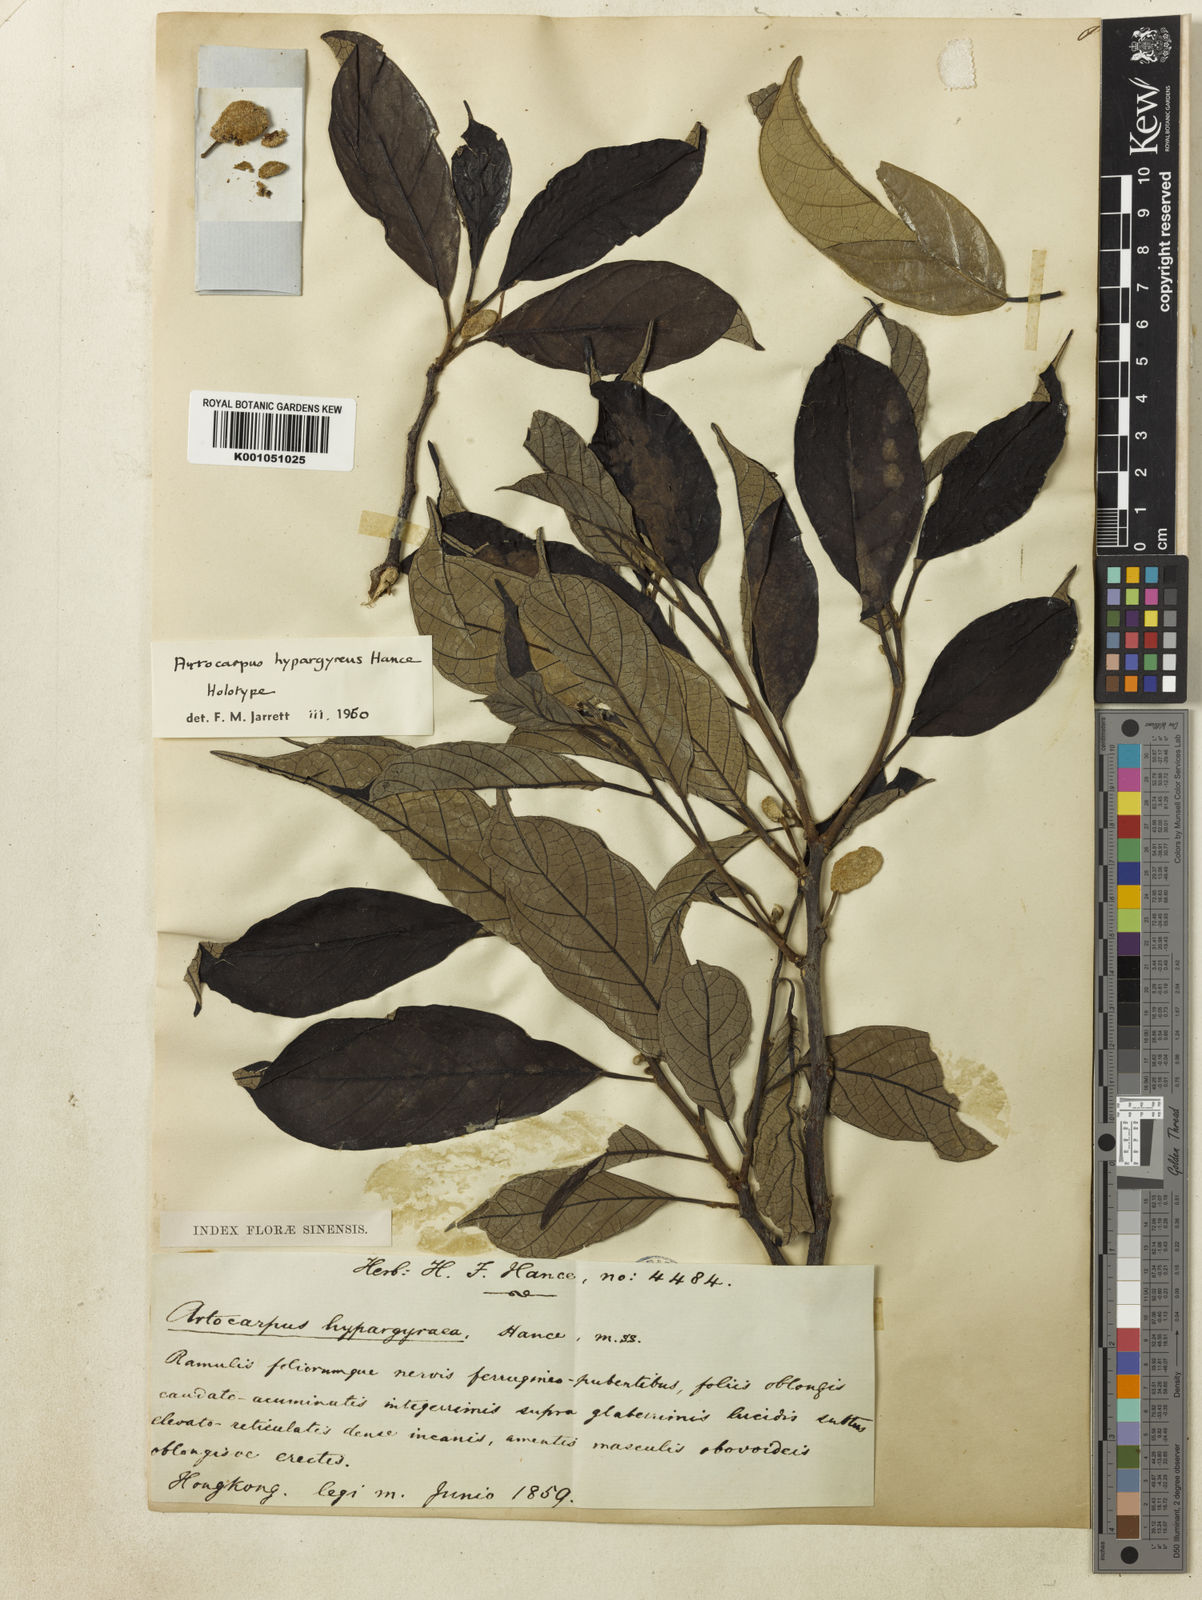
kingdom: Plantae
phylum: Tracheophyta
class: Magnoliopsida
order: Rosales
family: Moraceae
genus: Artocarpus
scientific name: Artocarpus hypargyreus
